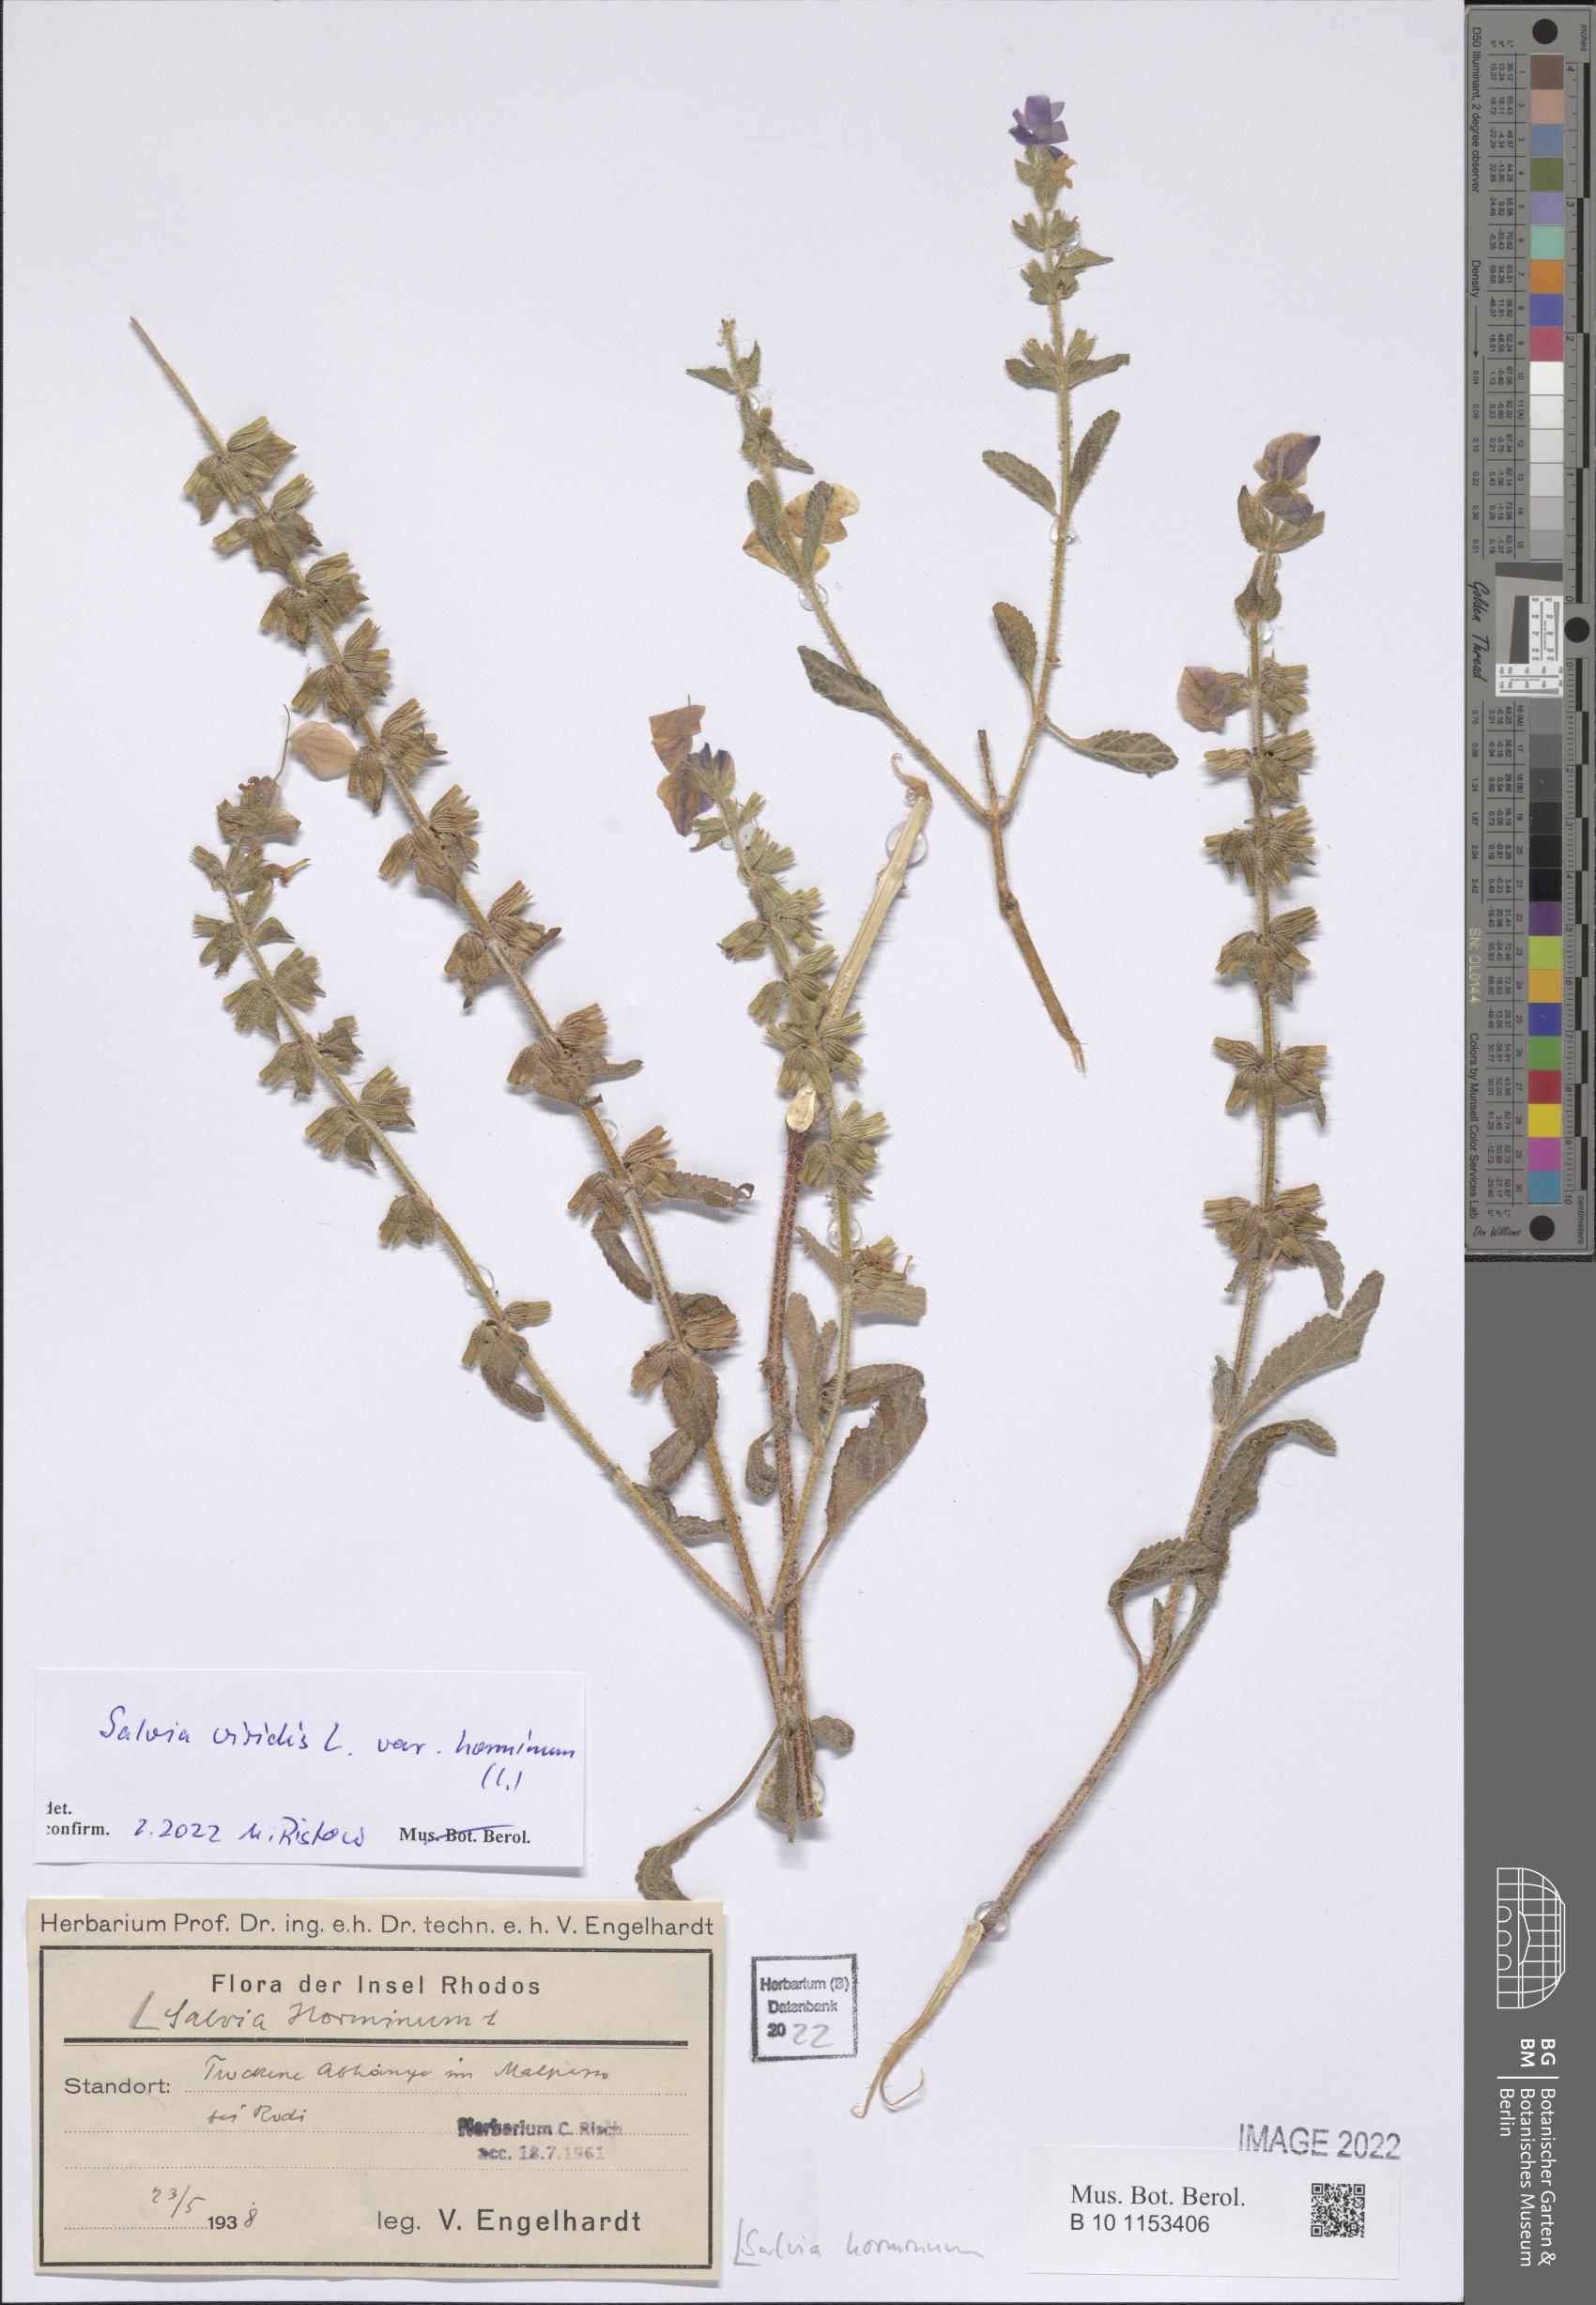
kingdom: Plantae
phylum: Tracheophyta
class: Magnoliopsida
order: Lamiales
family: Lamiaceae
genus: Salvia
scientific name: Salvia viridis
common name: Annual clary
